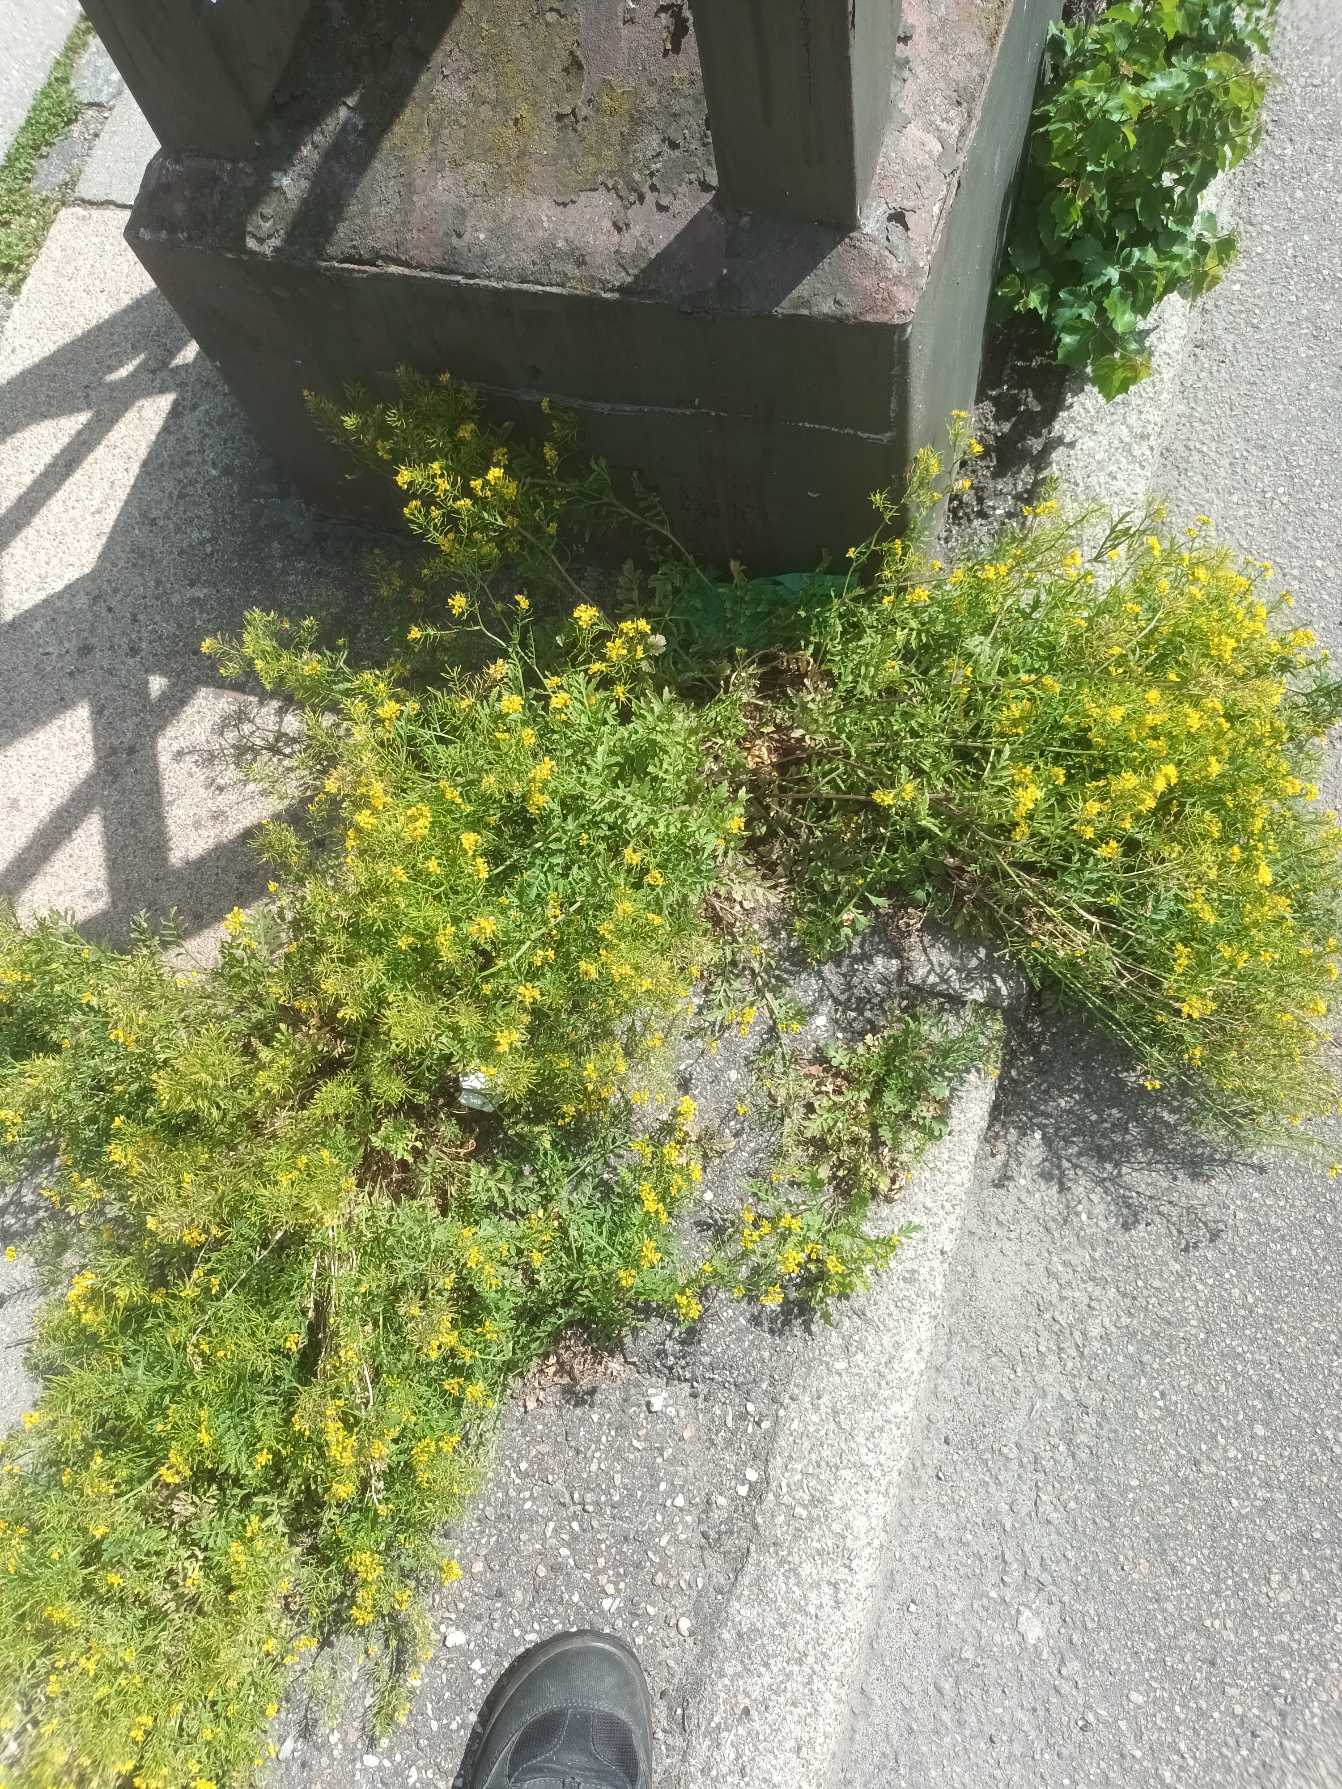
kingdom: Plantae
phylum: Tracheophyta
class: Magnoliopsida
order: Brassicales
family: Brassicaceae
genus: Rorippa
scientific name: Rorippa sylvestris
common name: Vej-guldkarse
